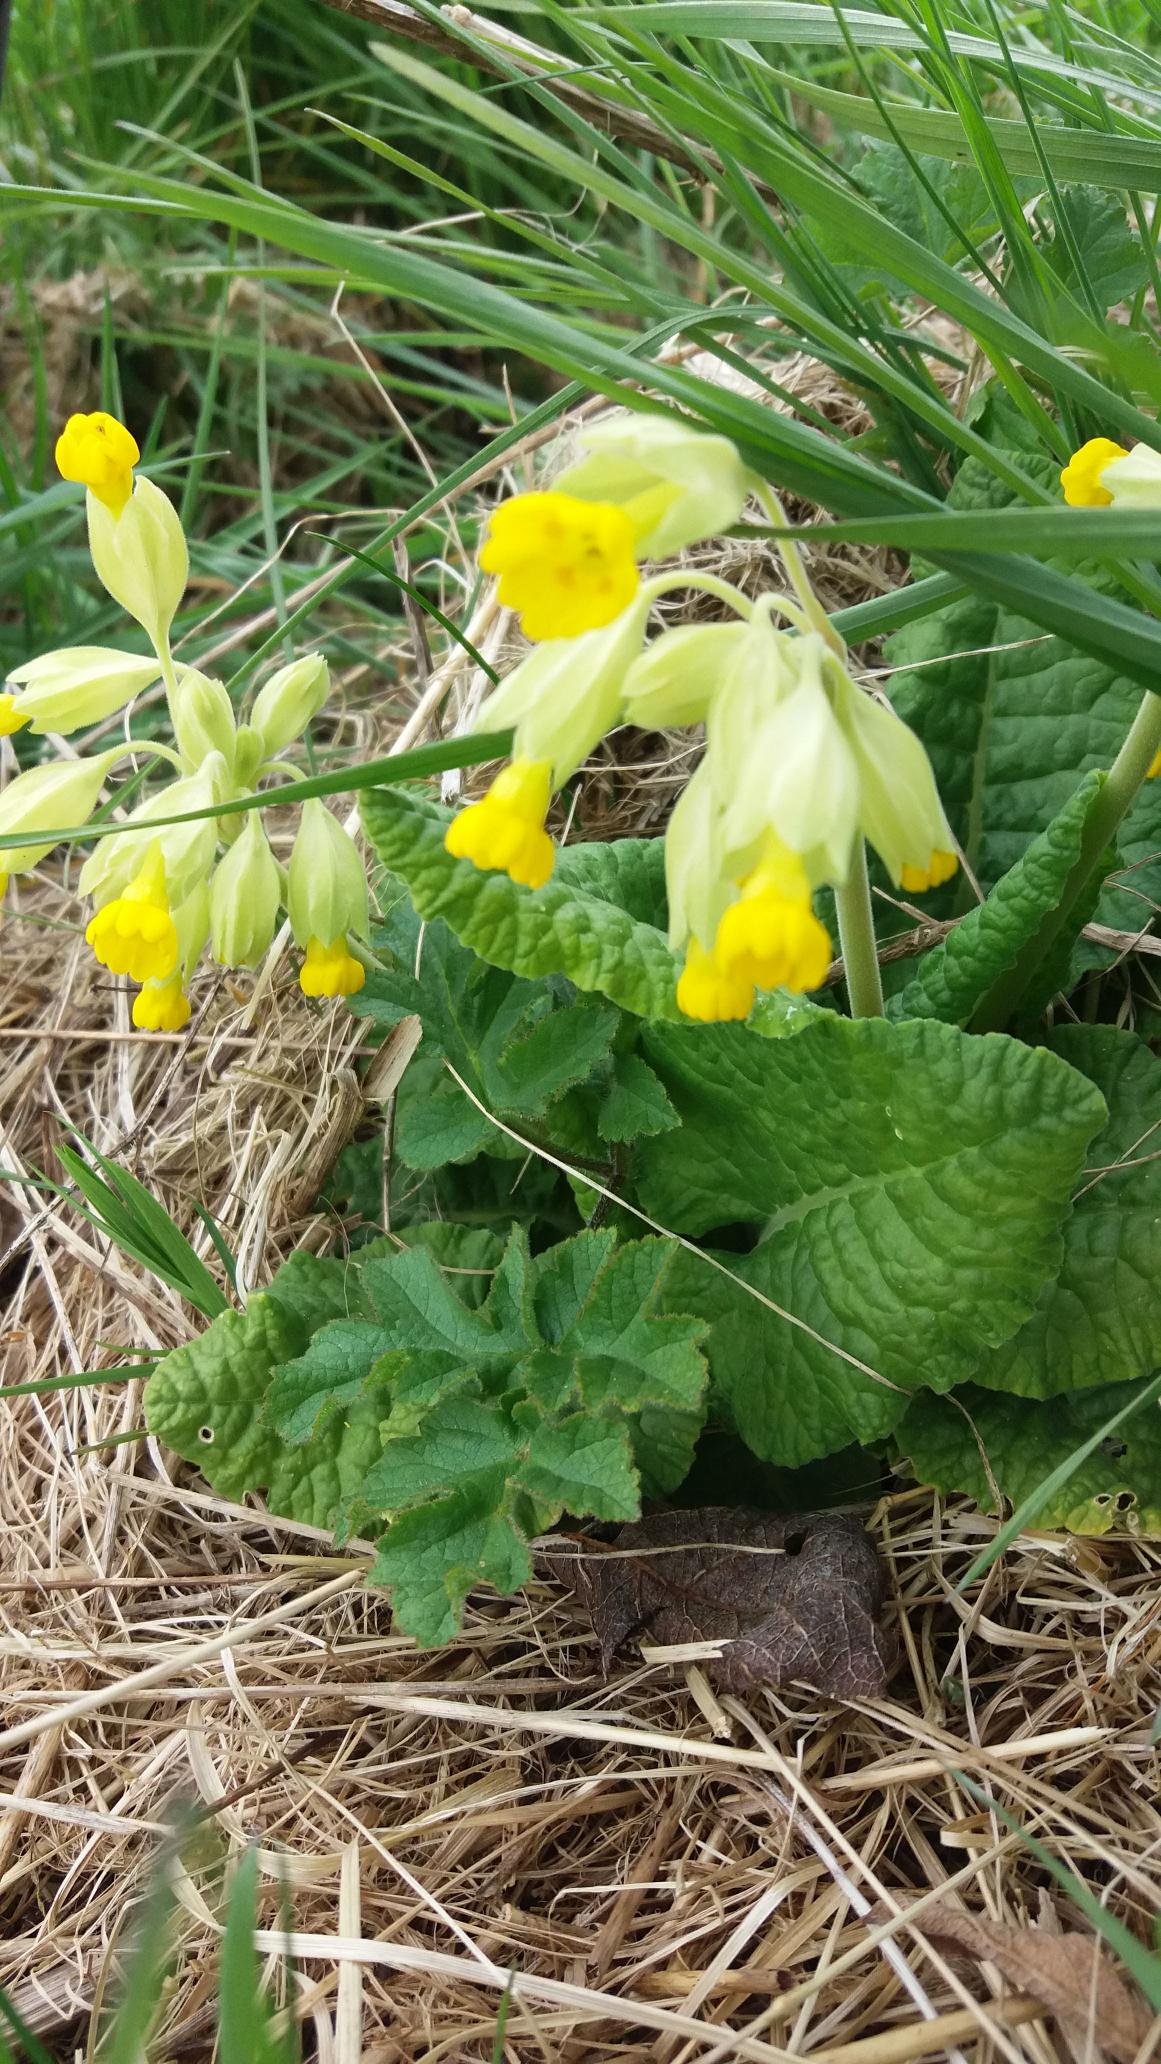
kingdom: Plantae
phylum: Tracheophyta
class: Magnoliopsida
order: Ericales
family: Primulaceae
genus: Primula
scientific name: Primula veris
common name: Hulkravet kodriver
